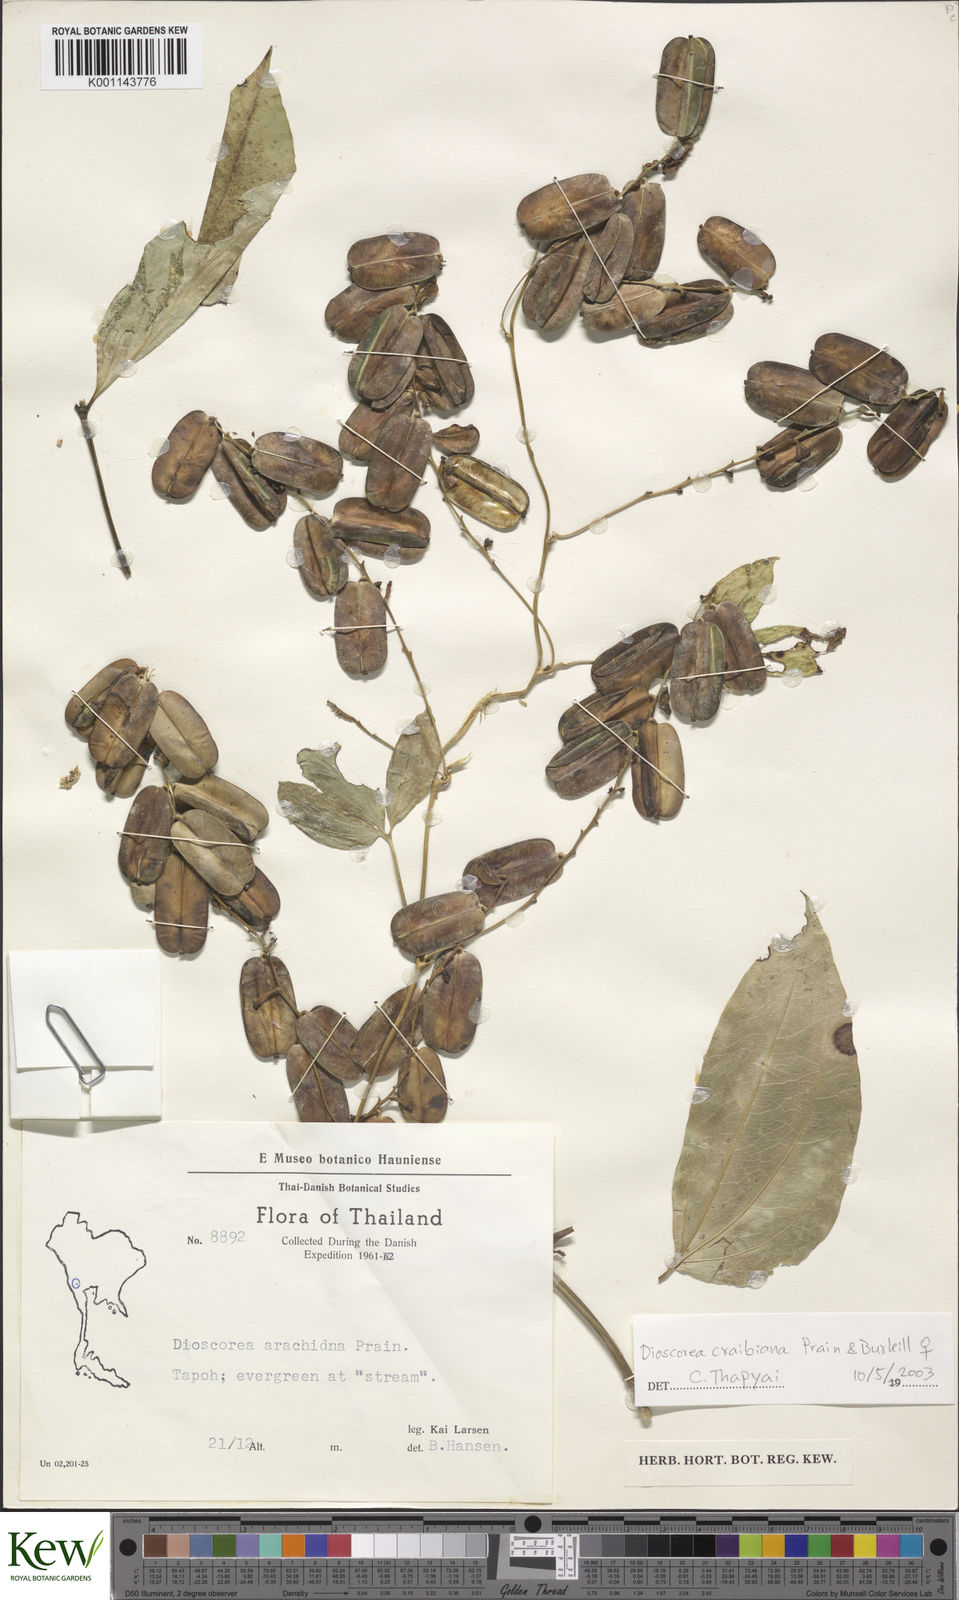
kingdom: Plantae
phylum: Tracheophyta
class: Liliopsida
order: Dioscoreales
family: Dioscoreaceae
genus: Dioscorea
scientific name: Dioscorea craibiana
